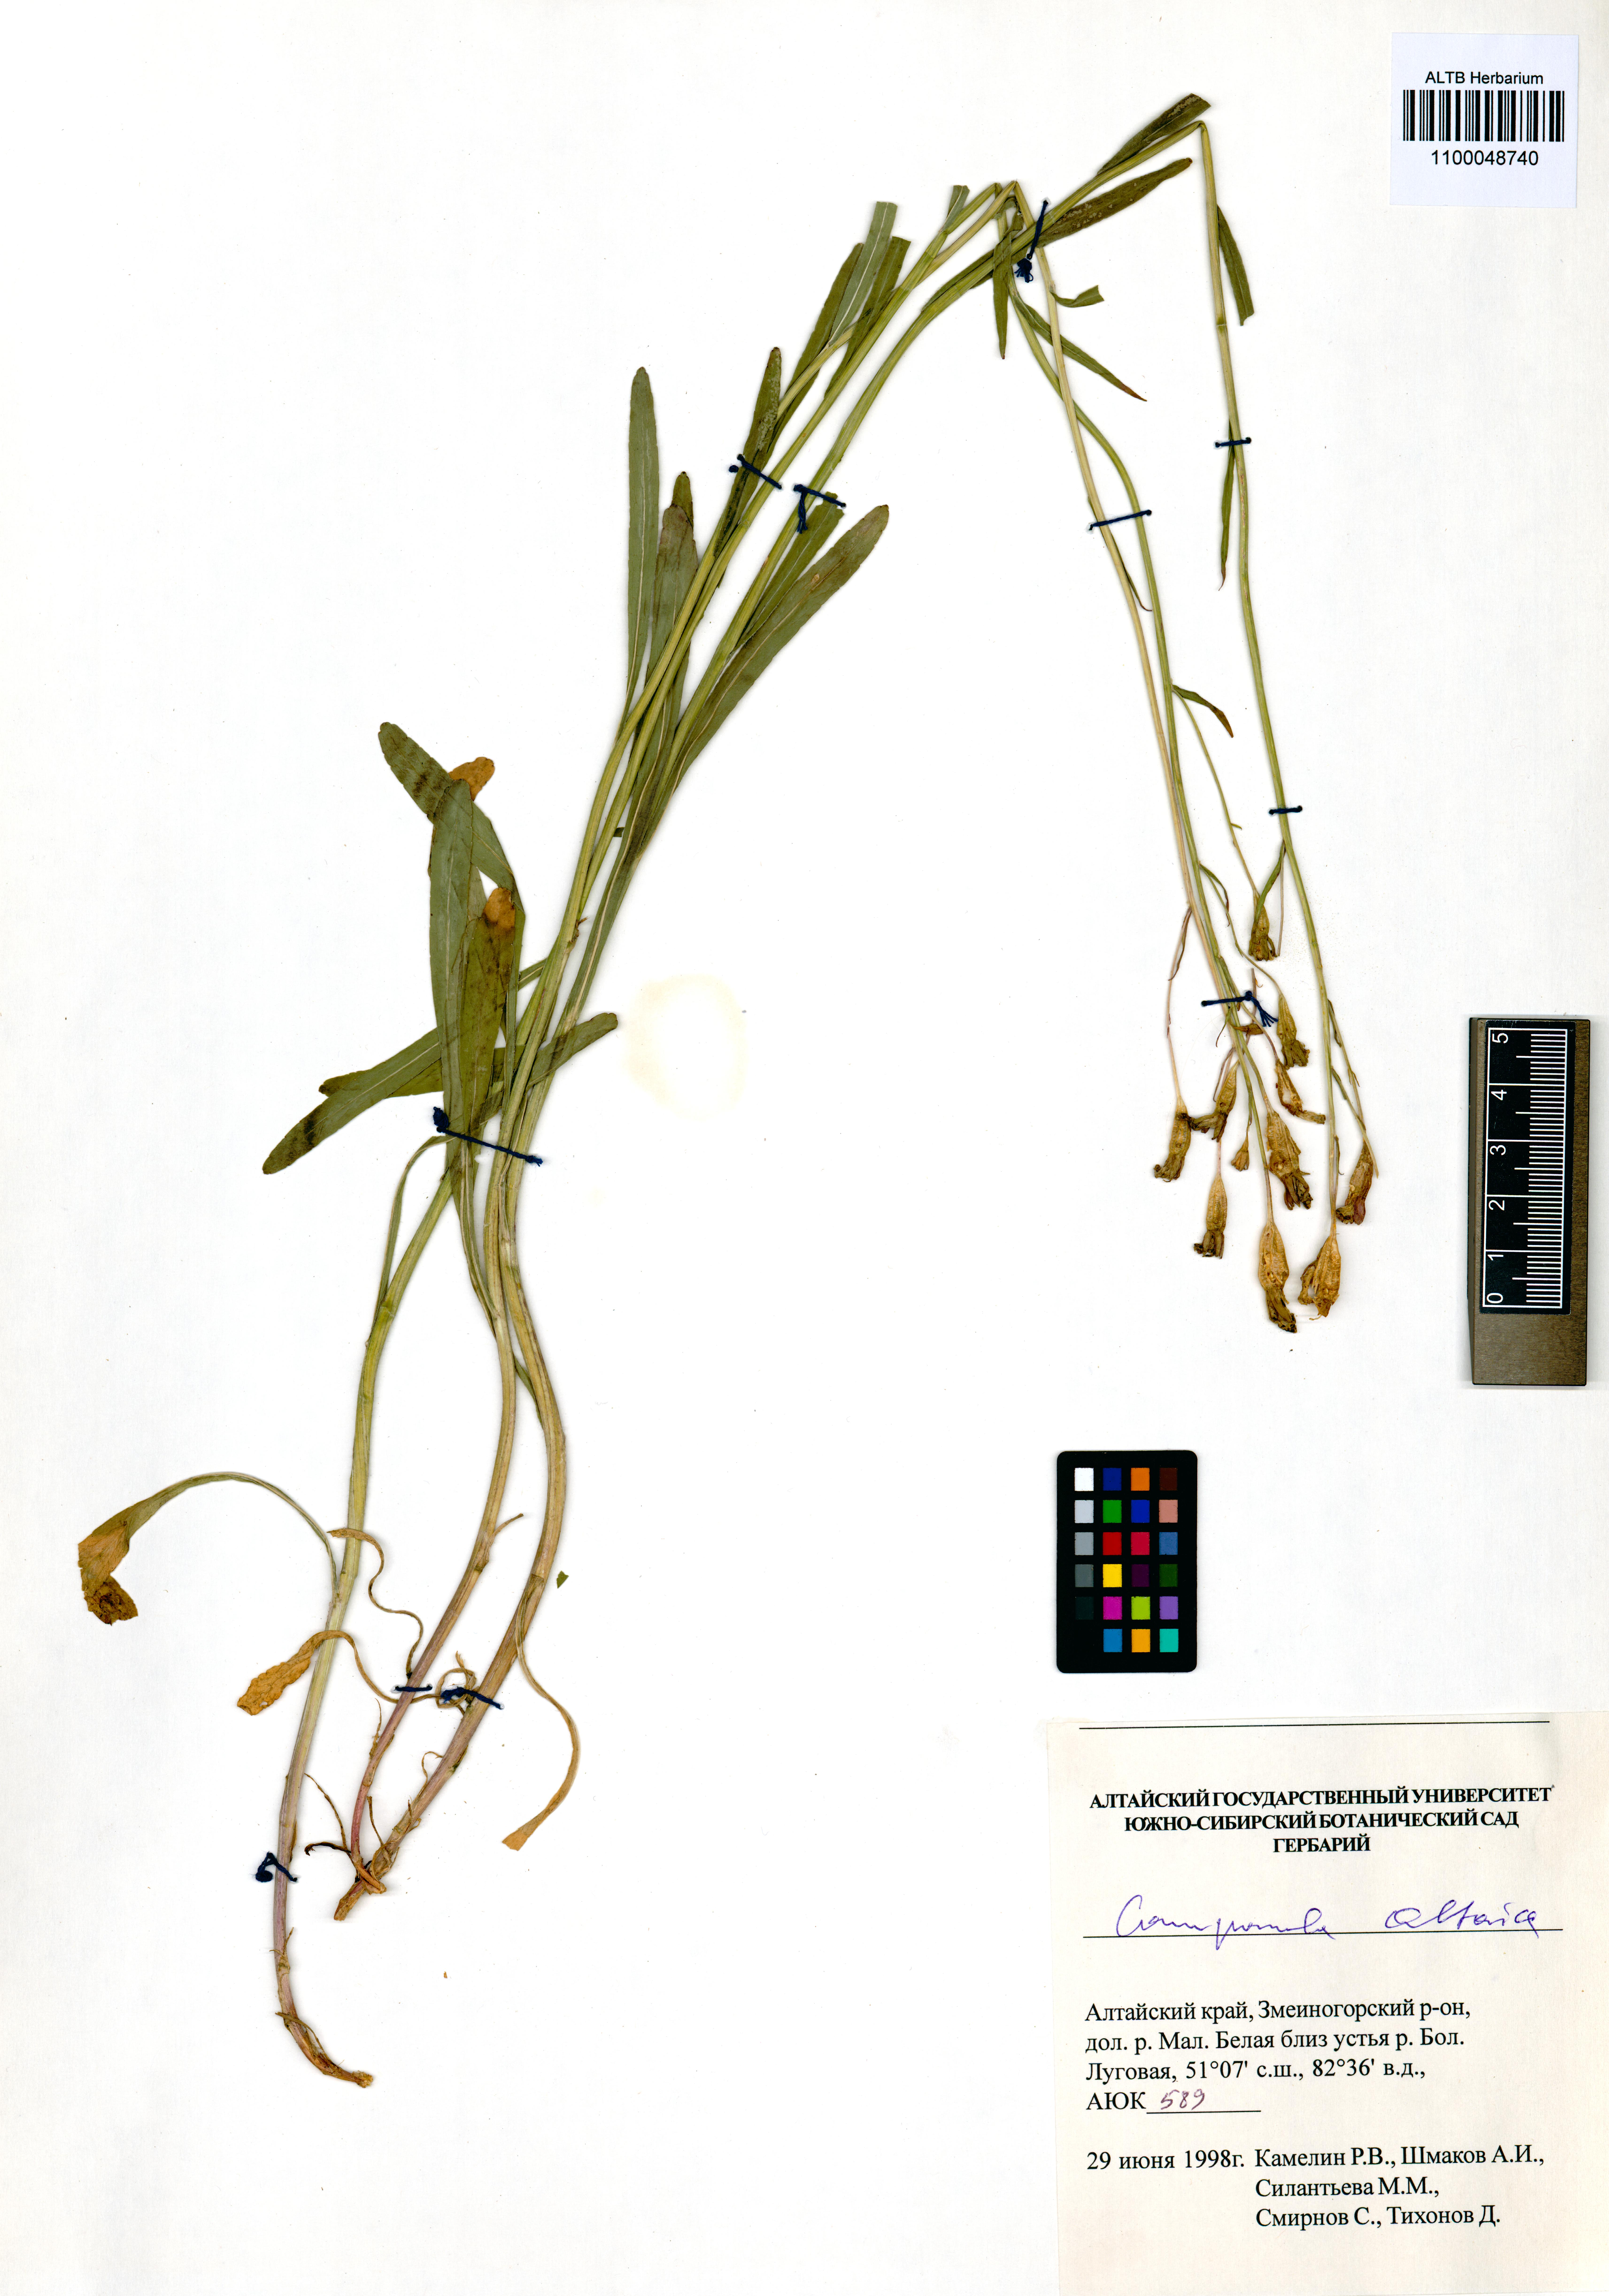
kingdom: Plantae
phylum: Tracheophyta
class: Magnoliopsida
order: Asterales
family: Campanulaceae
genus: Campanula
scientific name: Campanula stevenii
